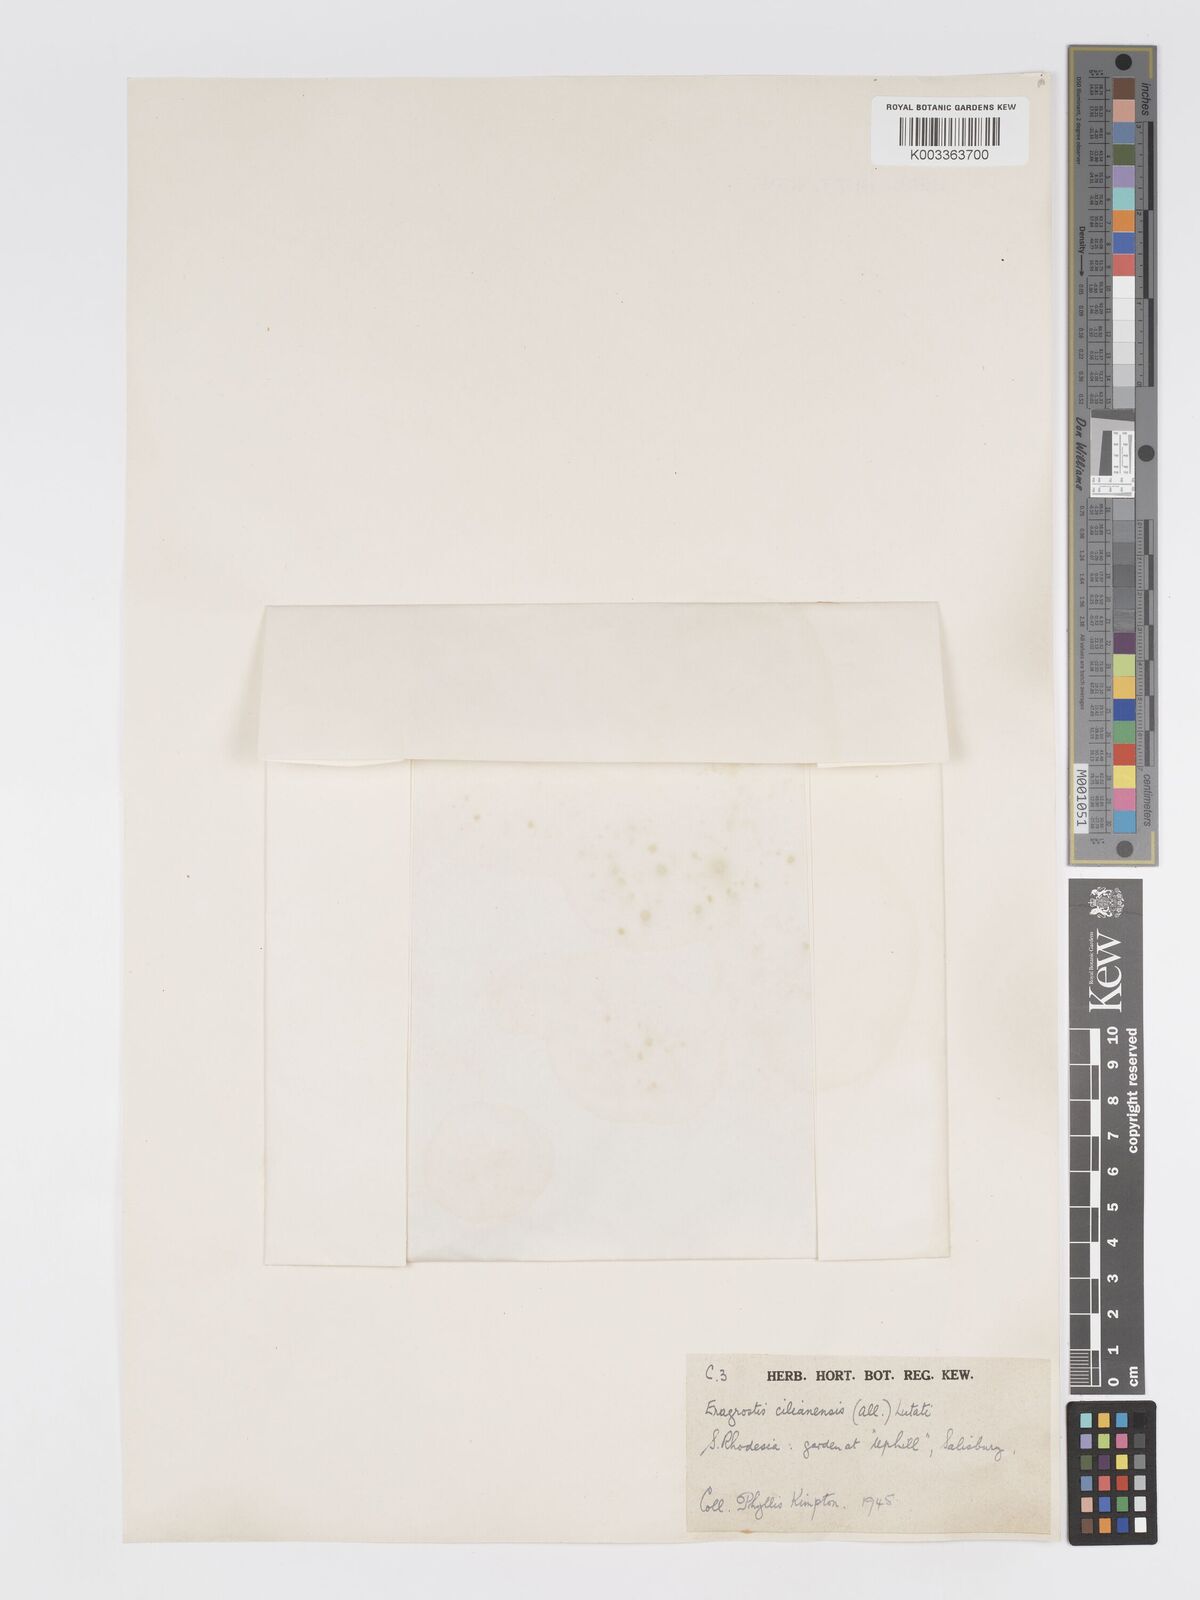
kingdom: Plantae
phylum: Tracheophyta
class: Liliopsida
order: Poales
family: Poaceae
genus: Eragrostis
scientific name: Eragrostis cilianensis
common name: Stinkgrass
